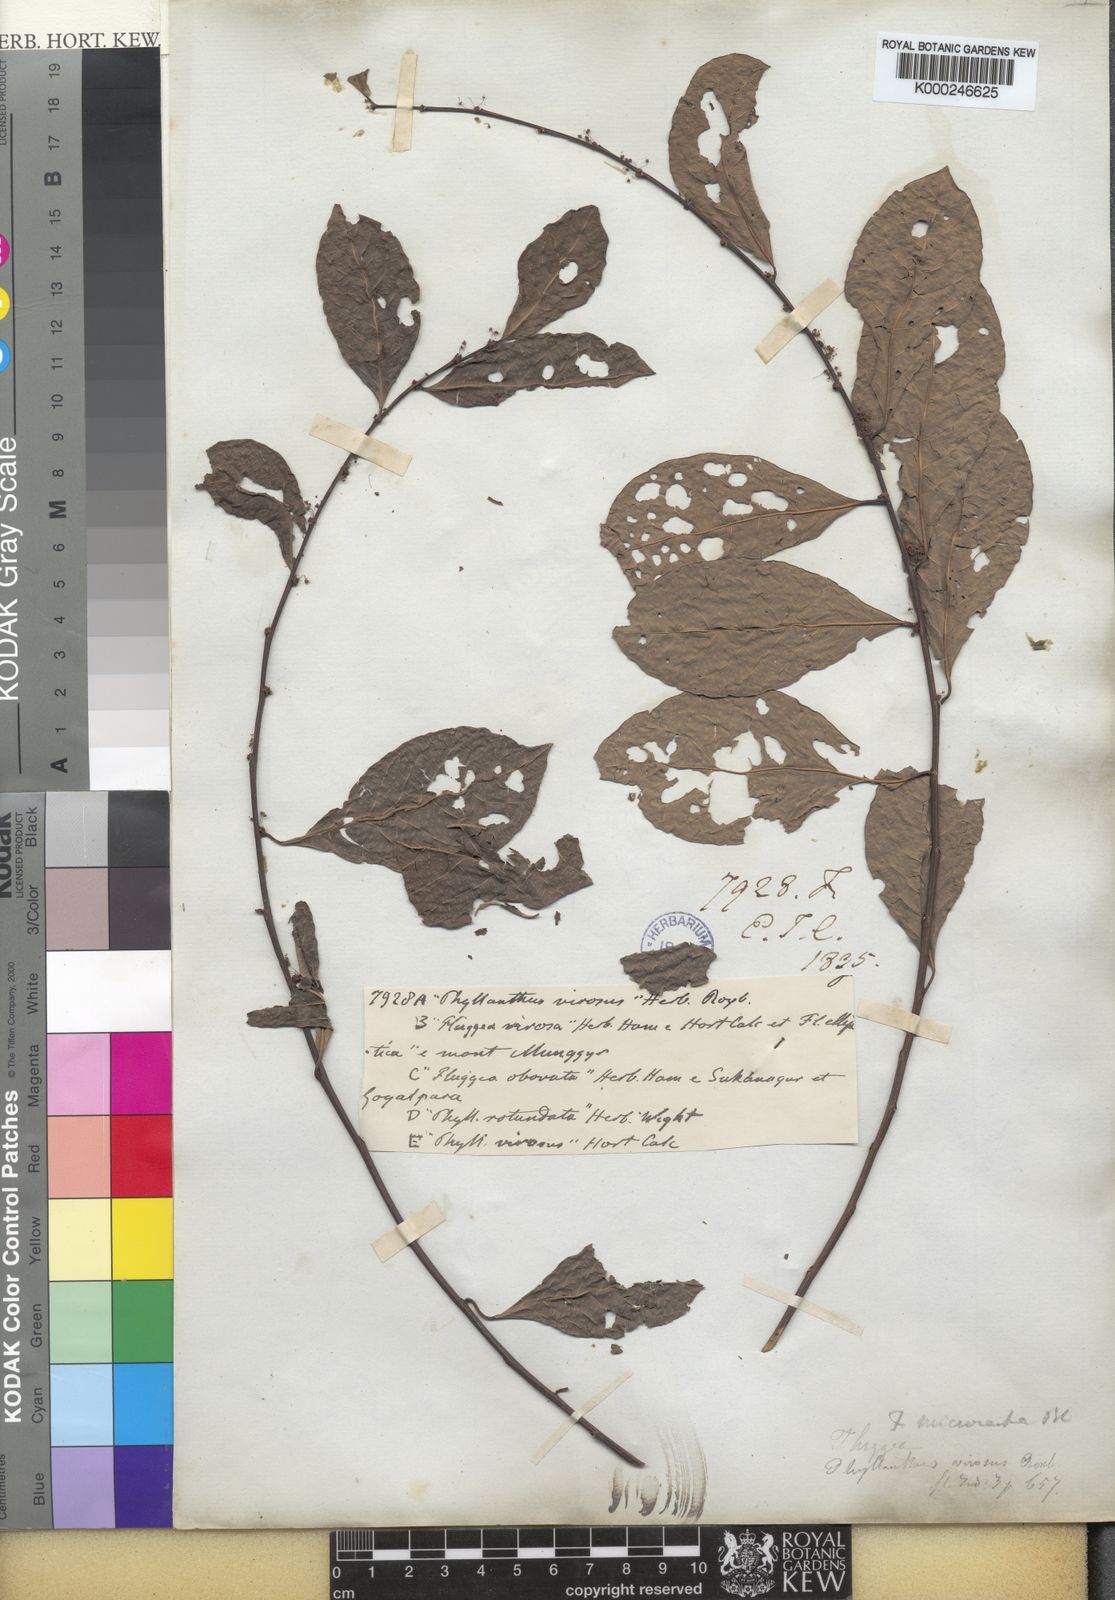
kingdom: Plantae
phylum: Tracheophyta
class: Magnoliopsida
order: Malpighiales
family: Phyllanthaceae
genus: Flueggea
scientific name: Flueggea virosa
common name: Common bushweed
